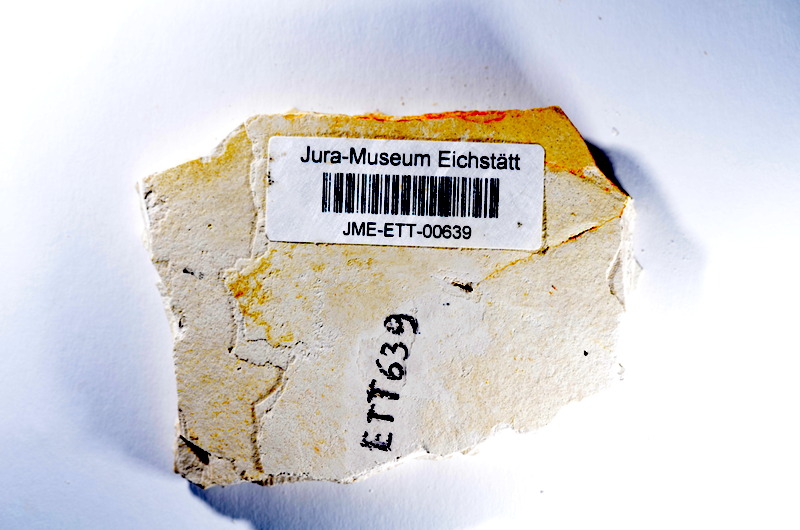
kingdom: Animalia
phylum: Chordata
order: Salmoniformes
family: Orthogonikleithridae
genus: Orthogonikleithrus
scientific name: Orthogonikleithrus hoelli
